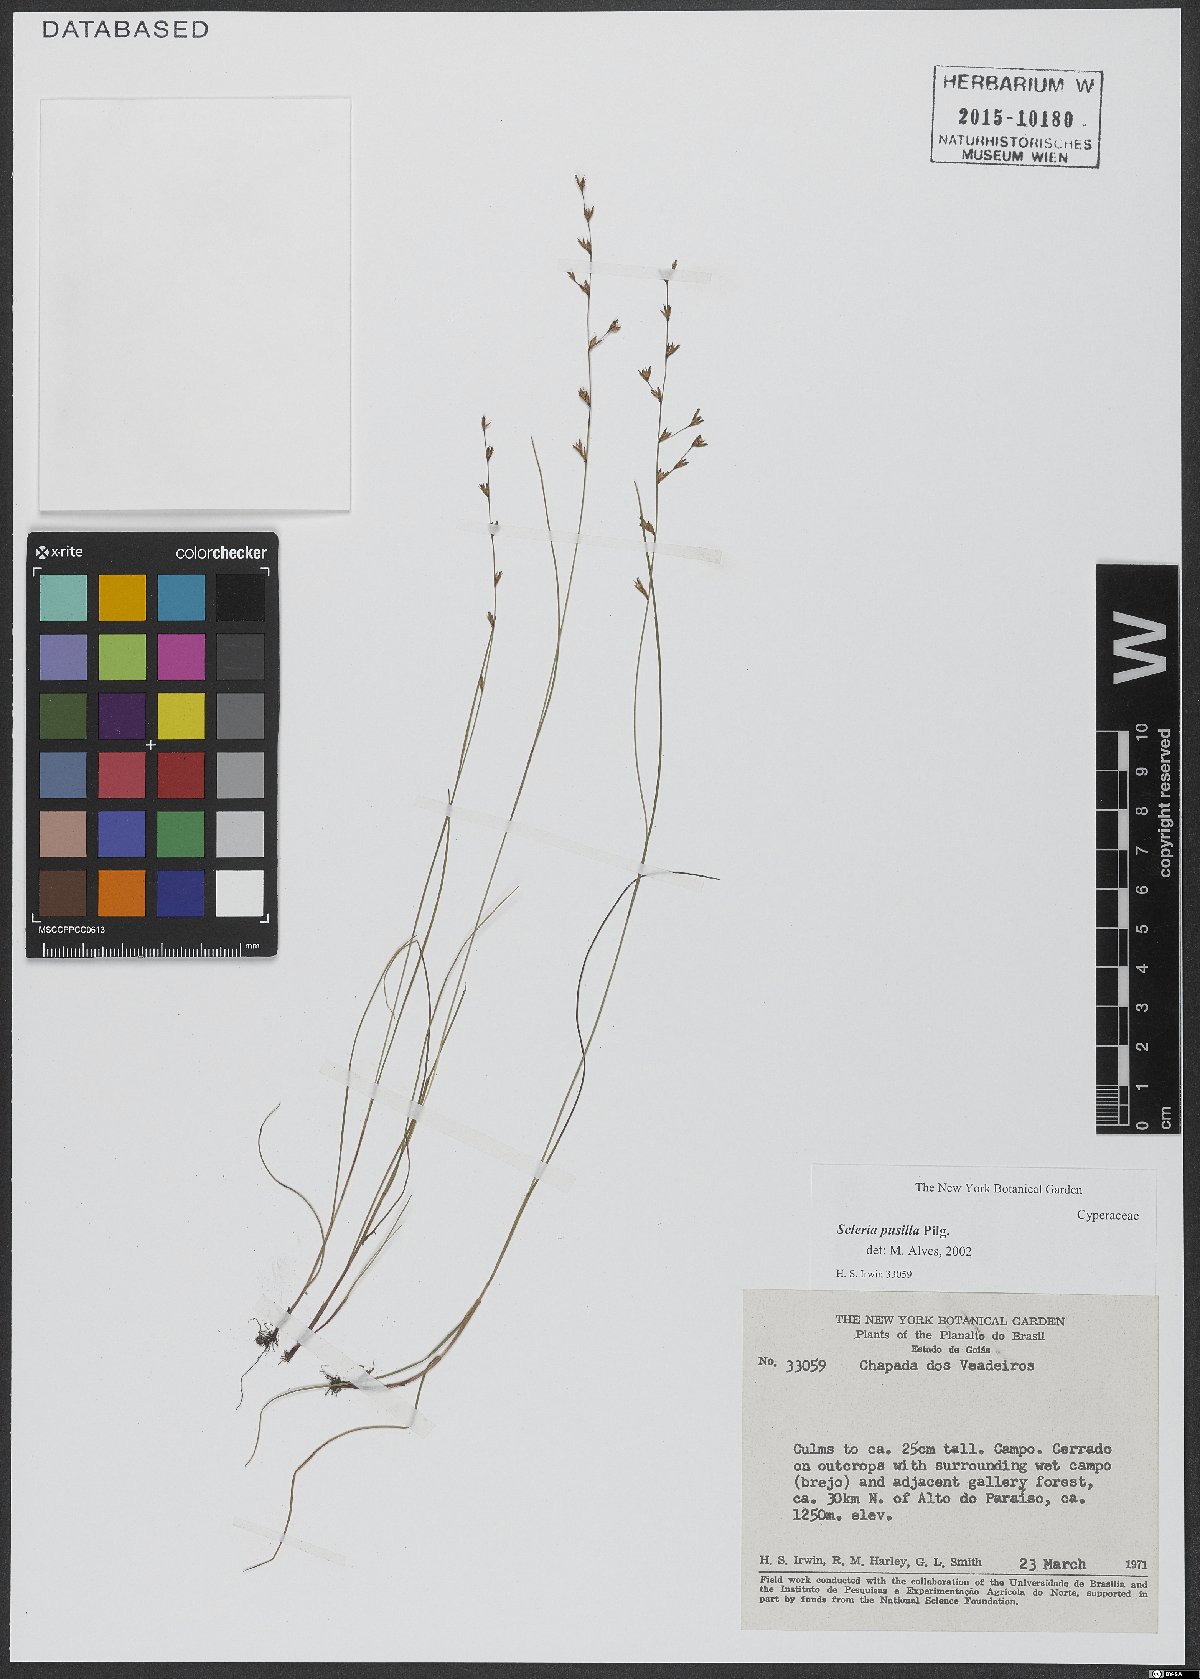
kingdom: Plantae
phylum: Tracheophyta
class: Liliopsida
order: Poales
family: Cyperaceae
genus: Scleria
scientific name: Scleria pusilla
